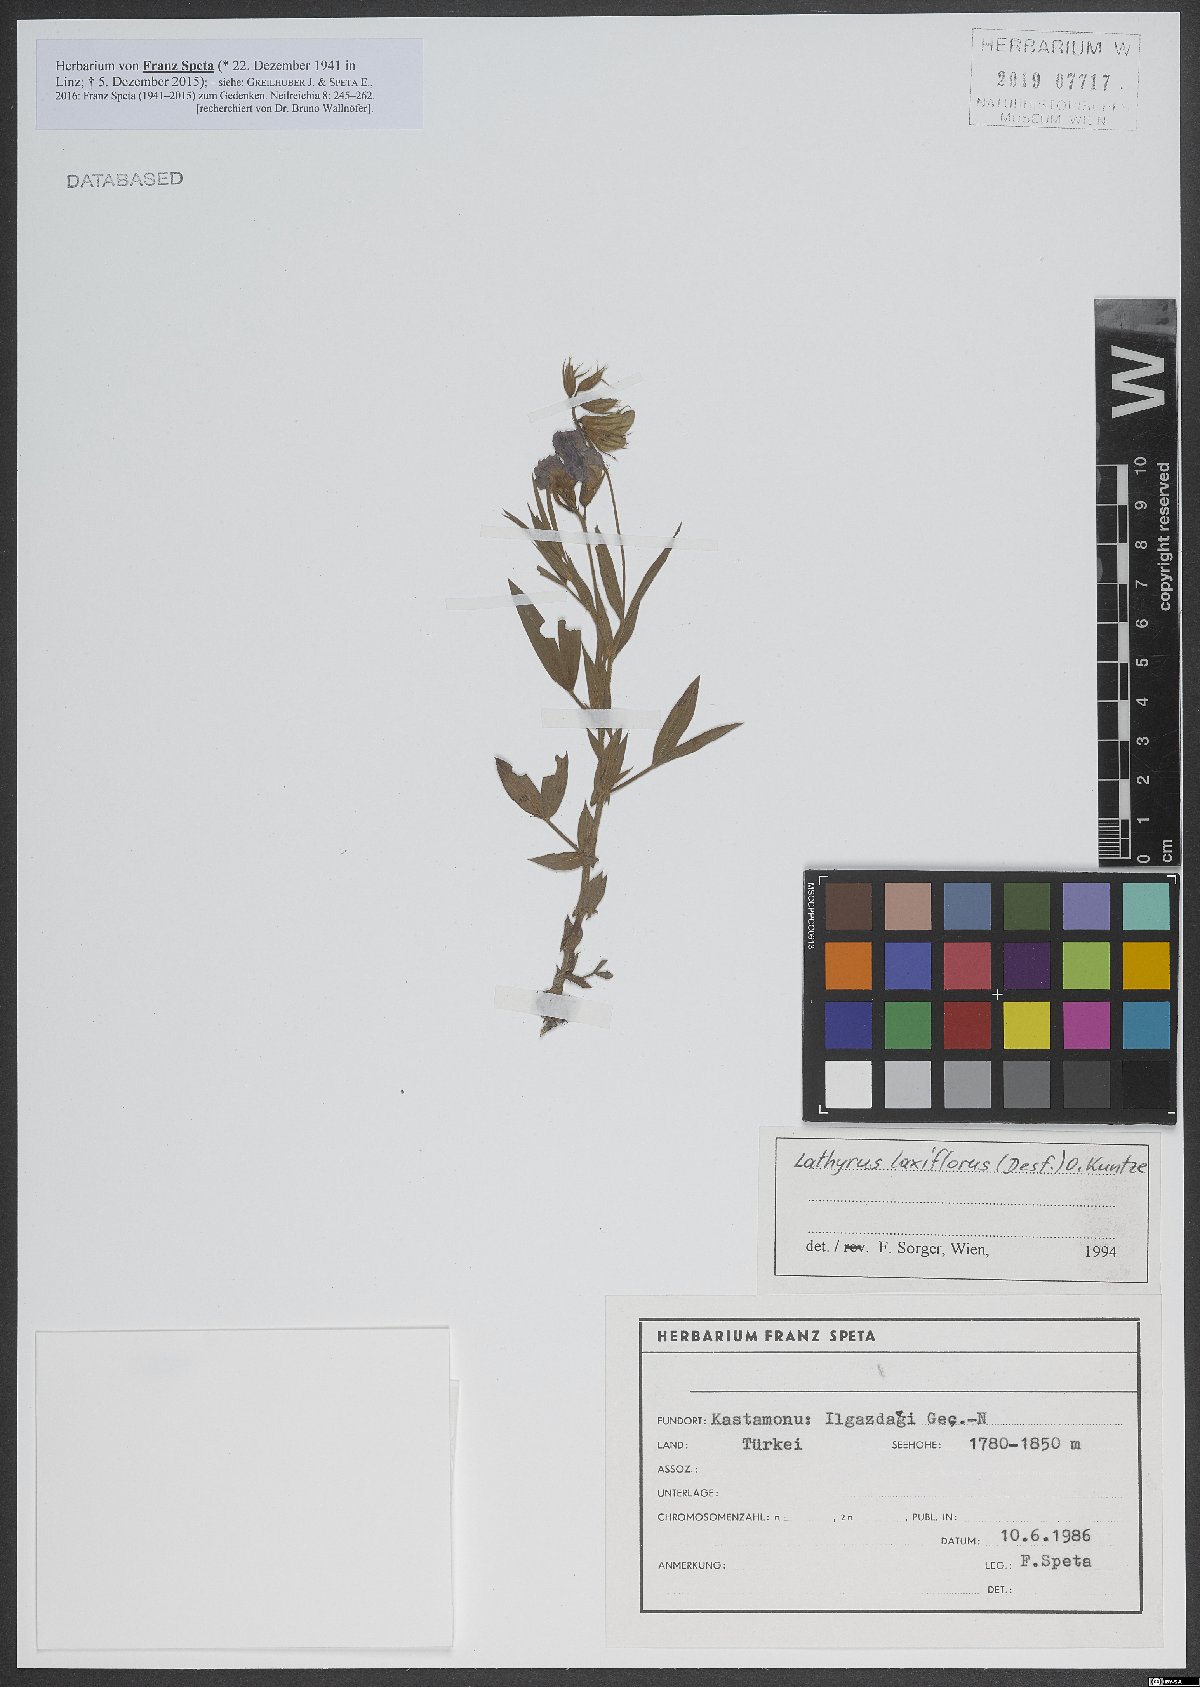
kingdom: Plantae
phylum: Tracheophyta
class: Magnoliopsida
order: Fabales
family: Fabaceae
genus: Lathyrus
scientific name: Lathyrus laxiflorus
